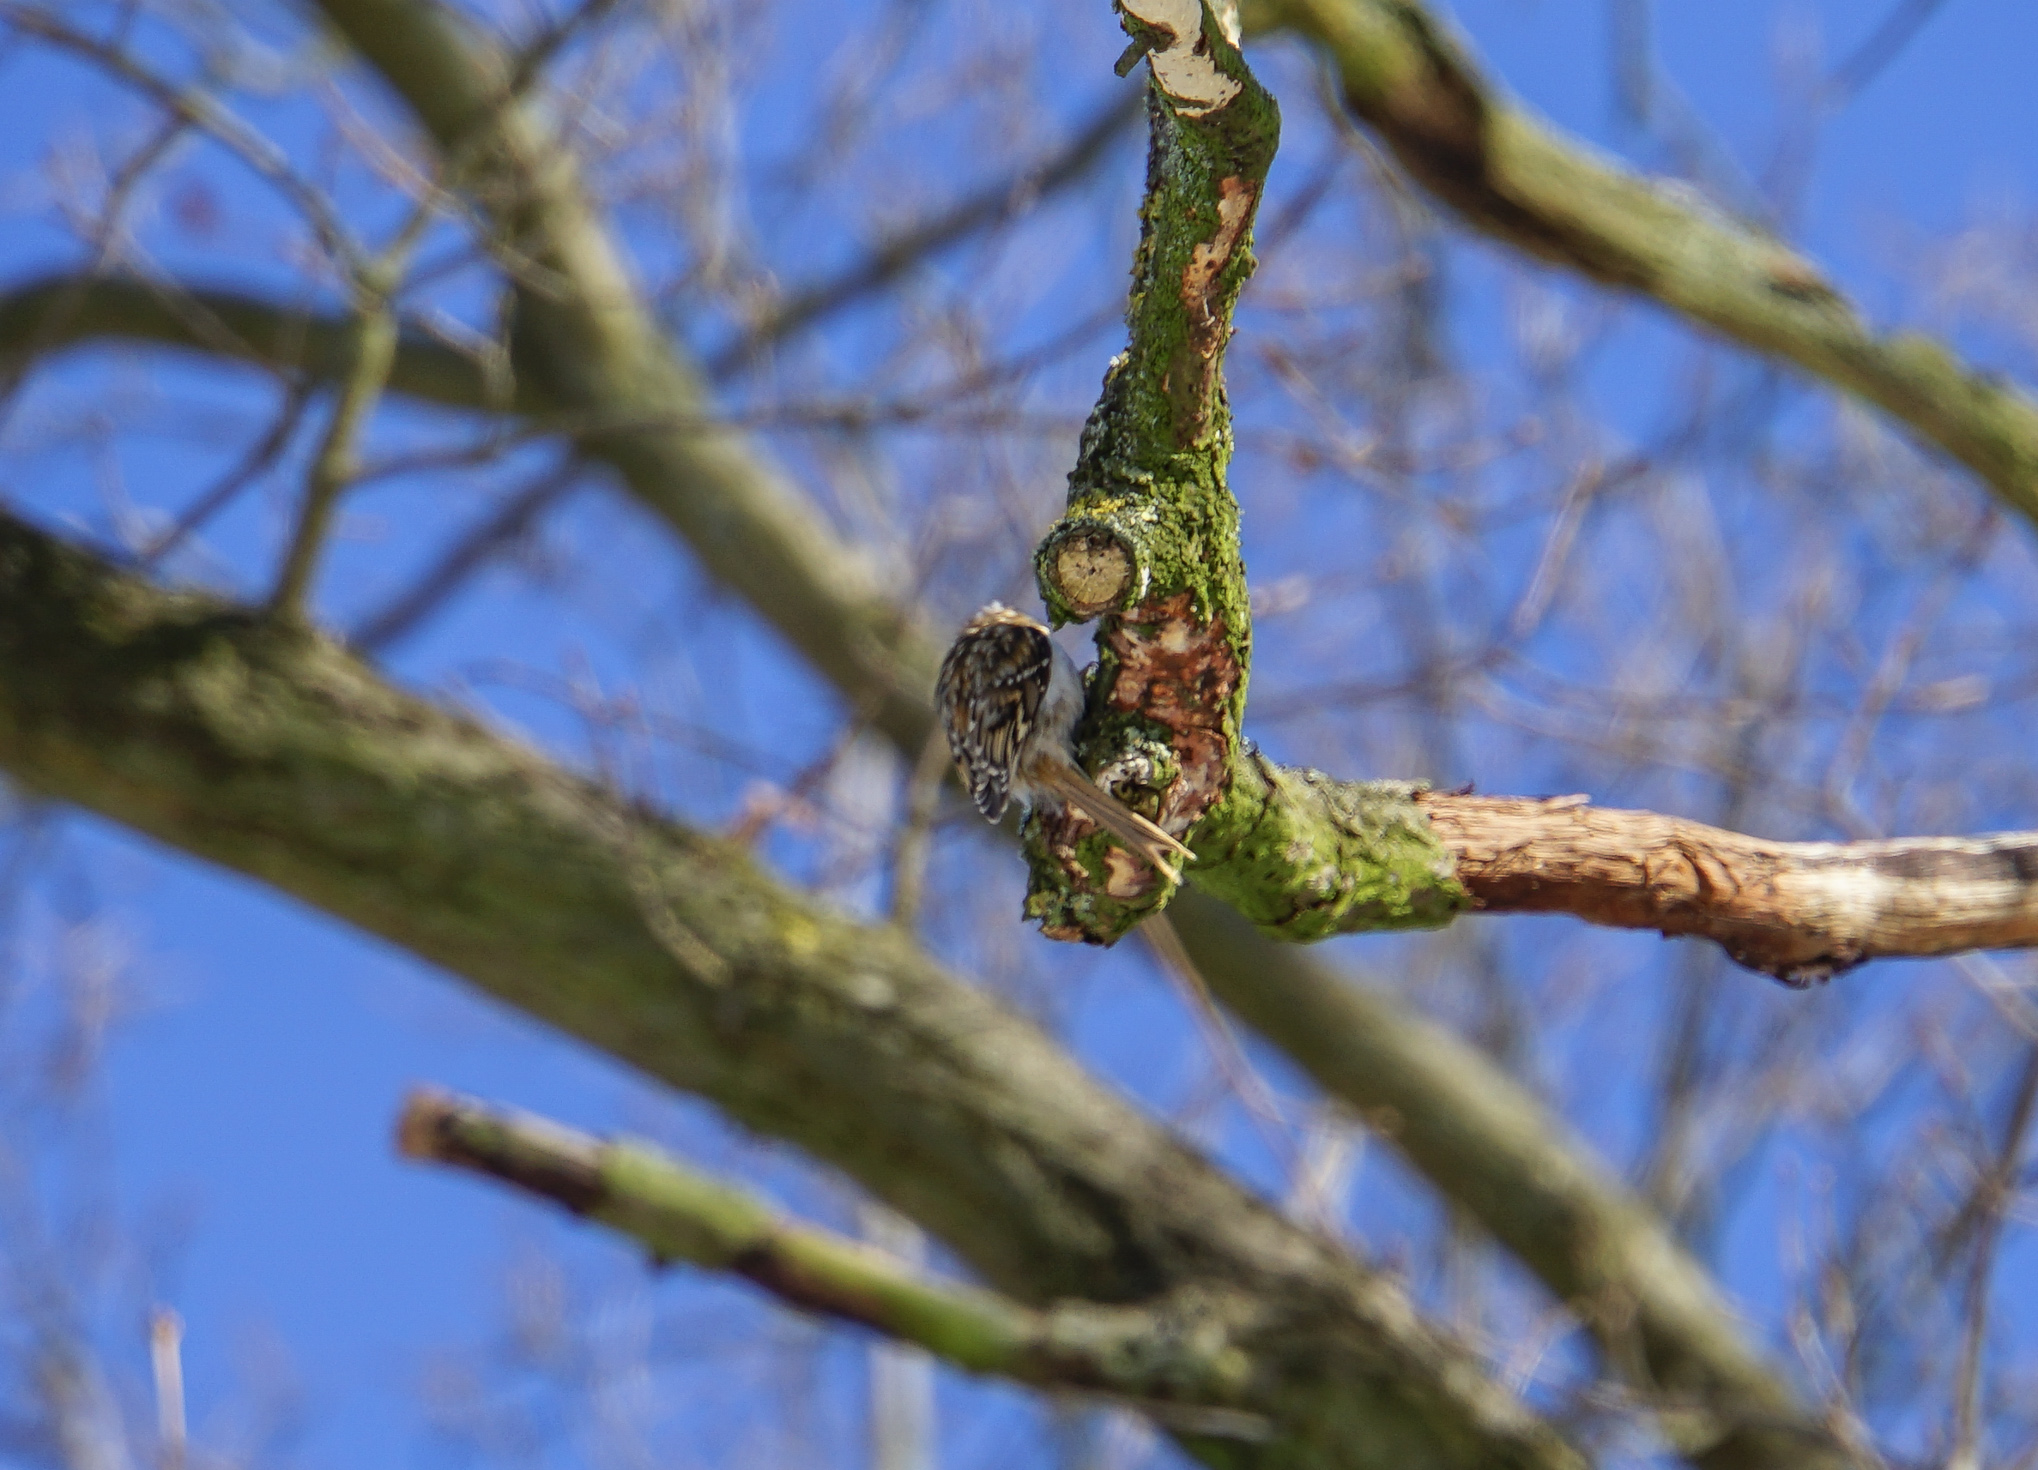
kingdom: Animalia
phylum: Chordata
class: Aves
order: Passeriformes
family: Certhiidae
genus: Certhia
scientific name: Certhia brachydactyla
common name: Short-toed treecreeper
